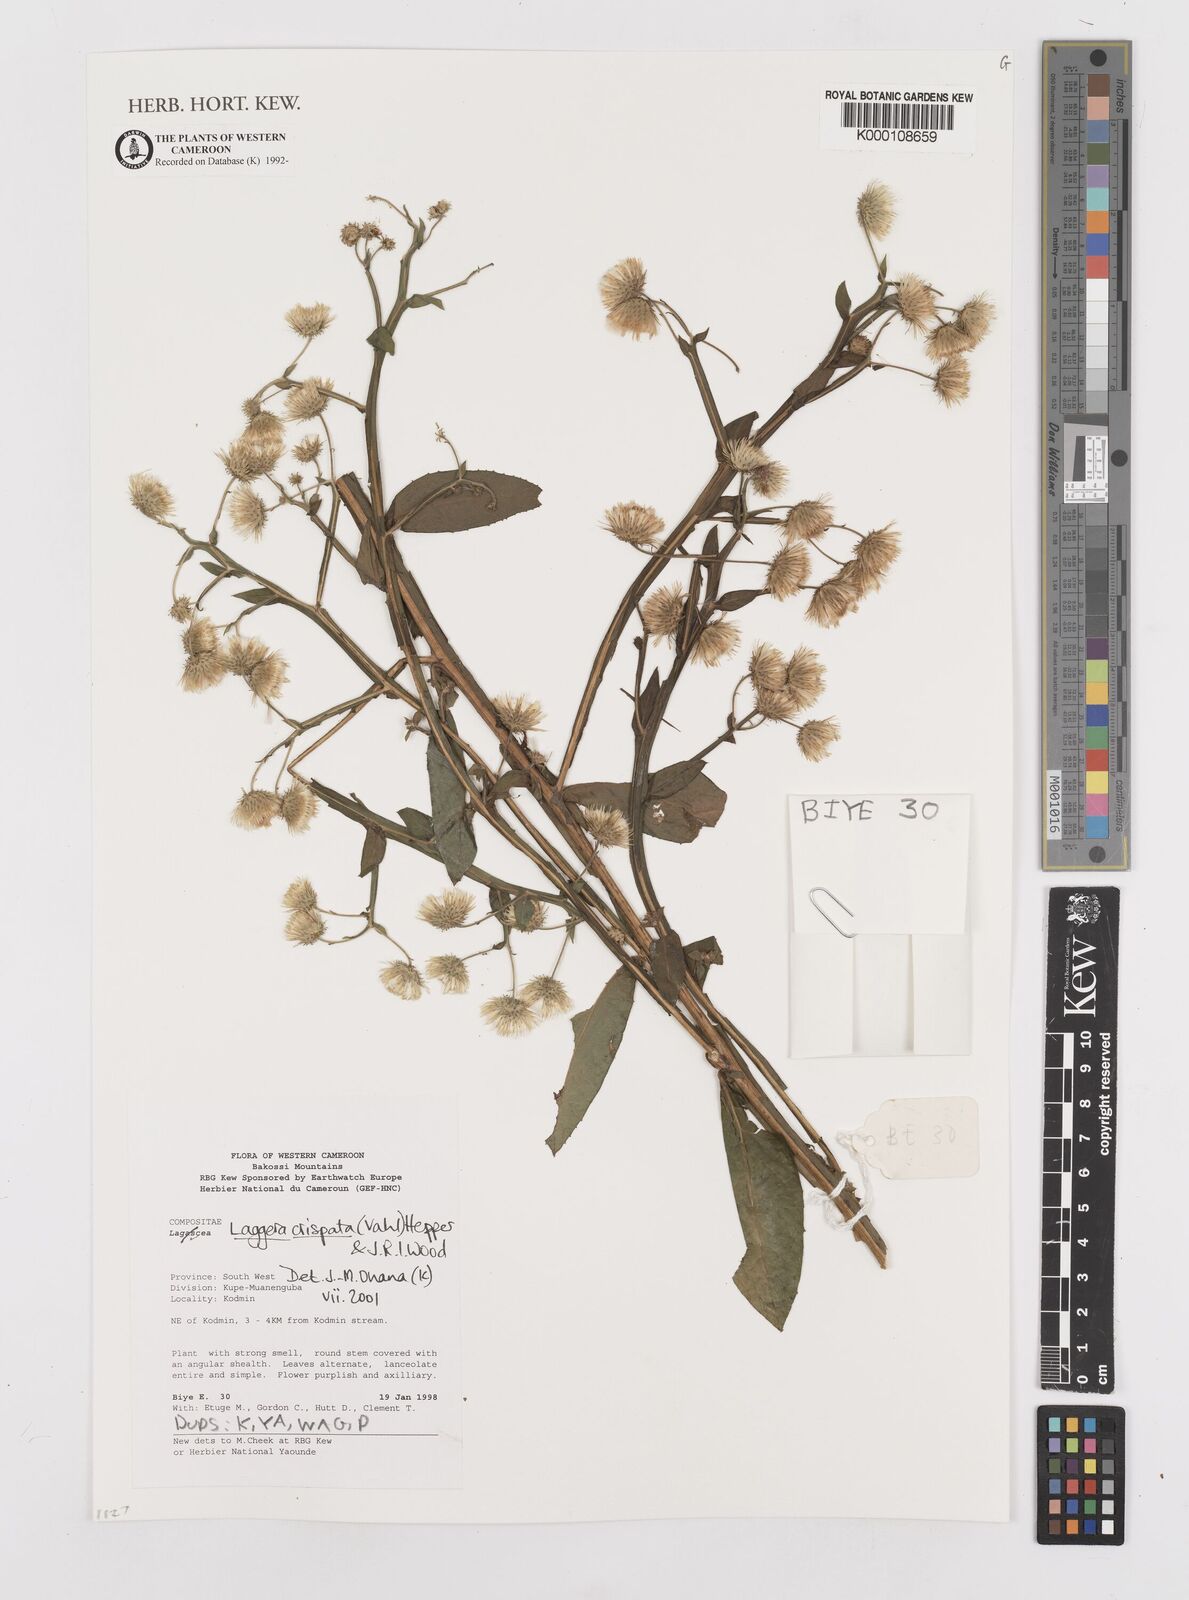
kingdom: Plantae
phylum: Tracheophyta
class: Magnoliopsida
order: Asterales
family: Asteraceae
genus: Laggera
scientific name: Laggera crispata
